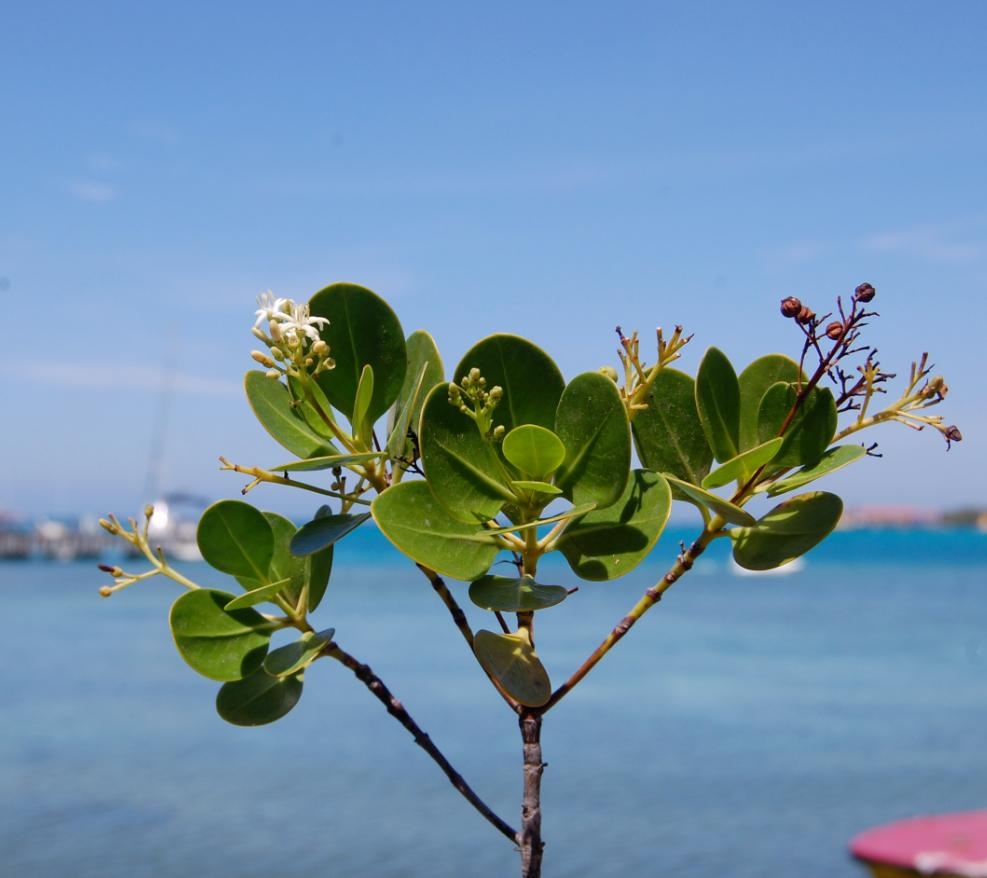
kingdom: Plantae
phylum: Tracheophyta
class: Magnoliopsida
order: Gentianales
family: Rubiaceae
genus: Erithalis
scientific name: Erithalis fruticosa
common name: Black-torch
